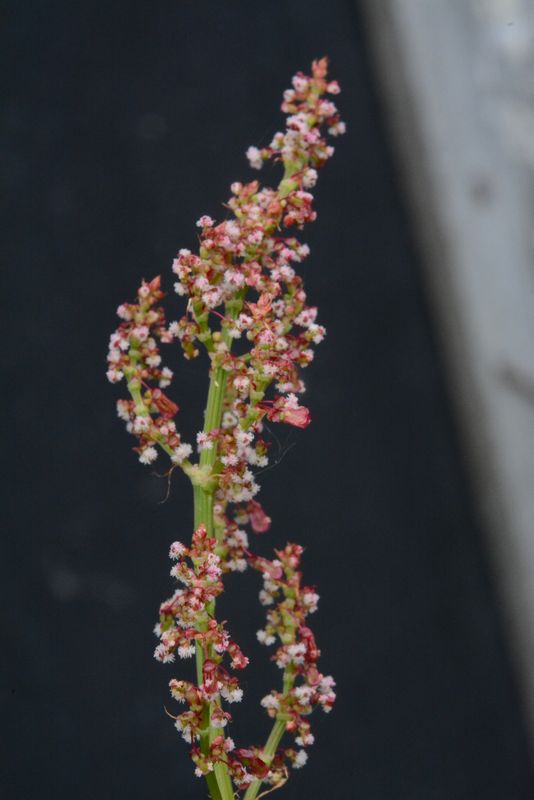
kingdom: Plantae
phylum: Tracheophyta
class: Magnoliopsida
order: Caryophyllales
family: Polygonaceae
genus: Rumex
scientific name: Rumex thyrsiflorus
